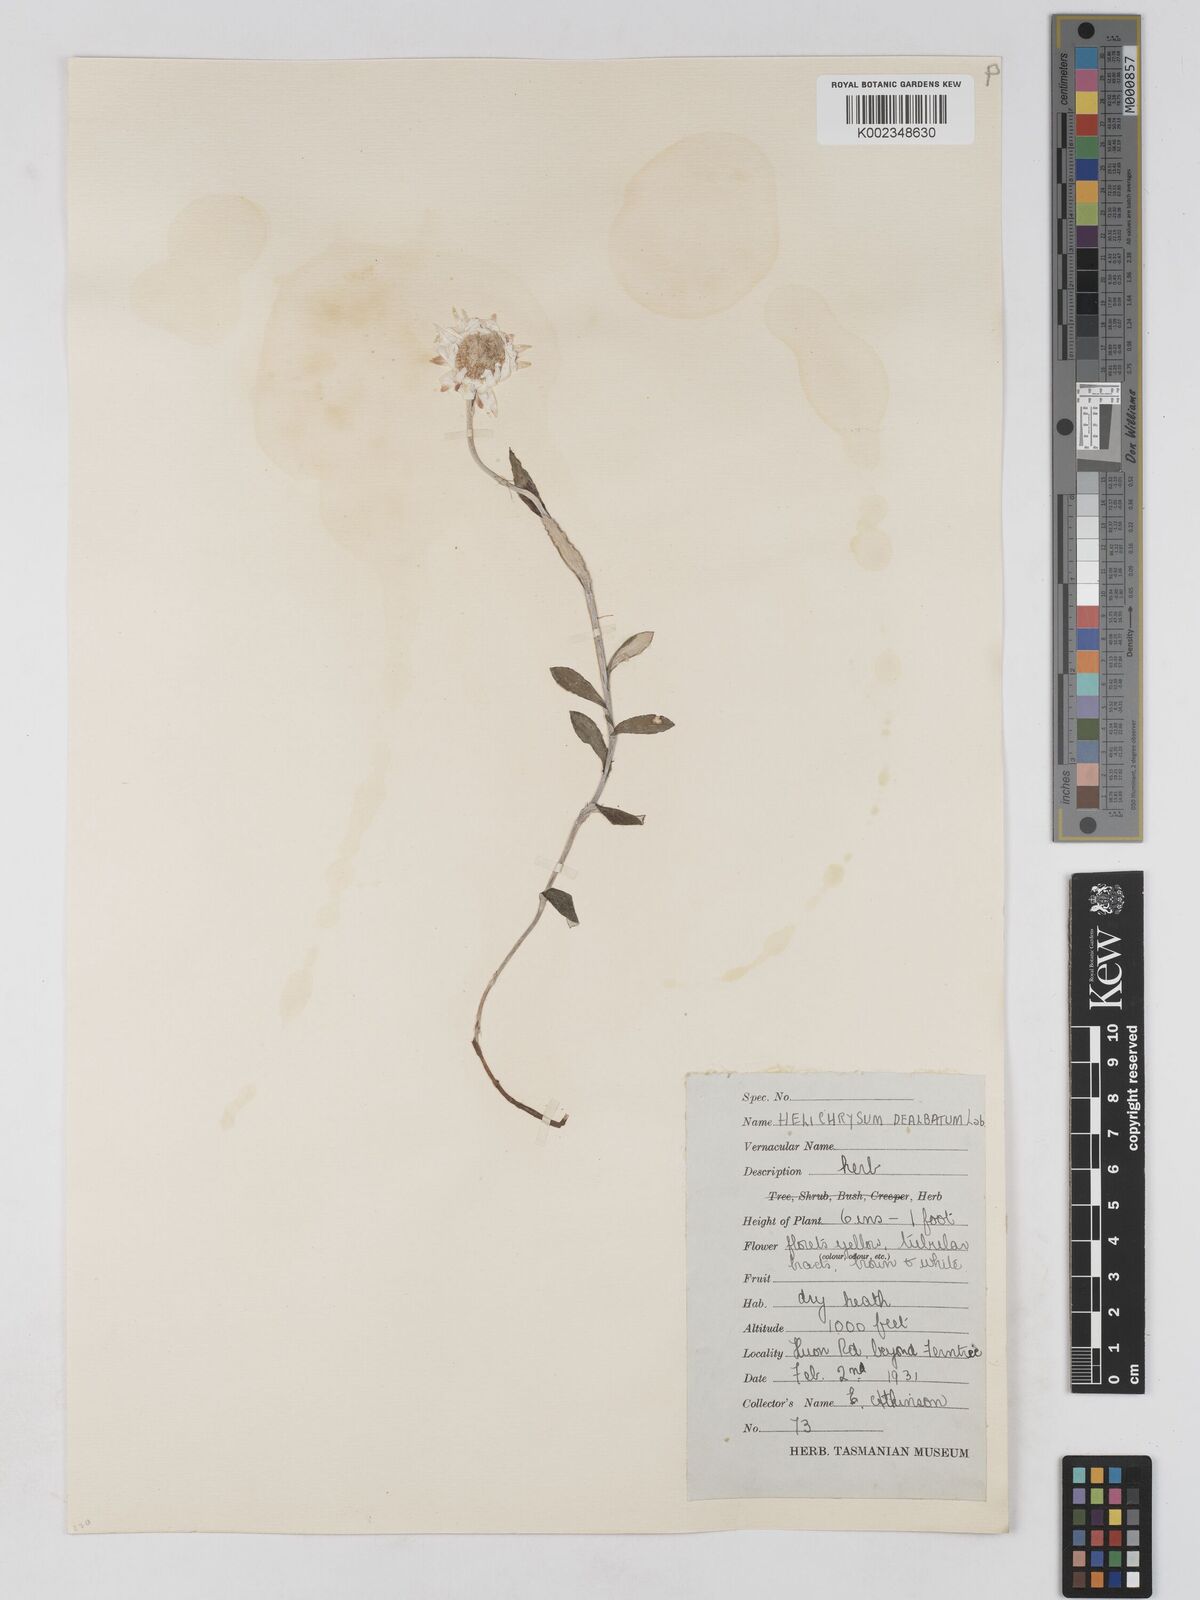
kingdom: Plantae
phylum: Tracheophyta
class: Magnoliopsida
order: Asterales
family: Asteraceae
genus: Argentipallium
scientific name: Argentipallium dealbatum
